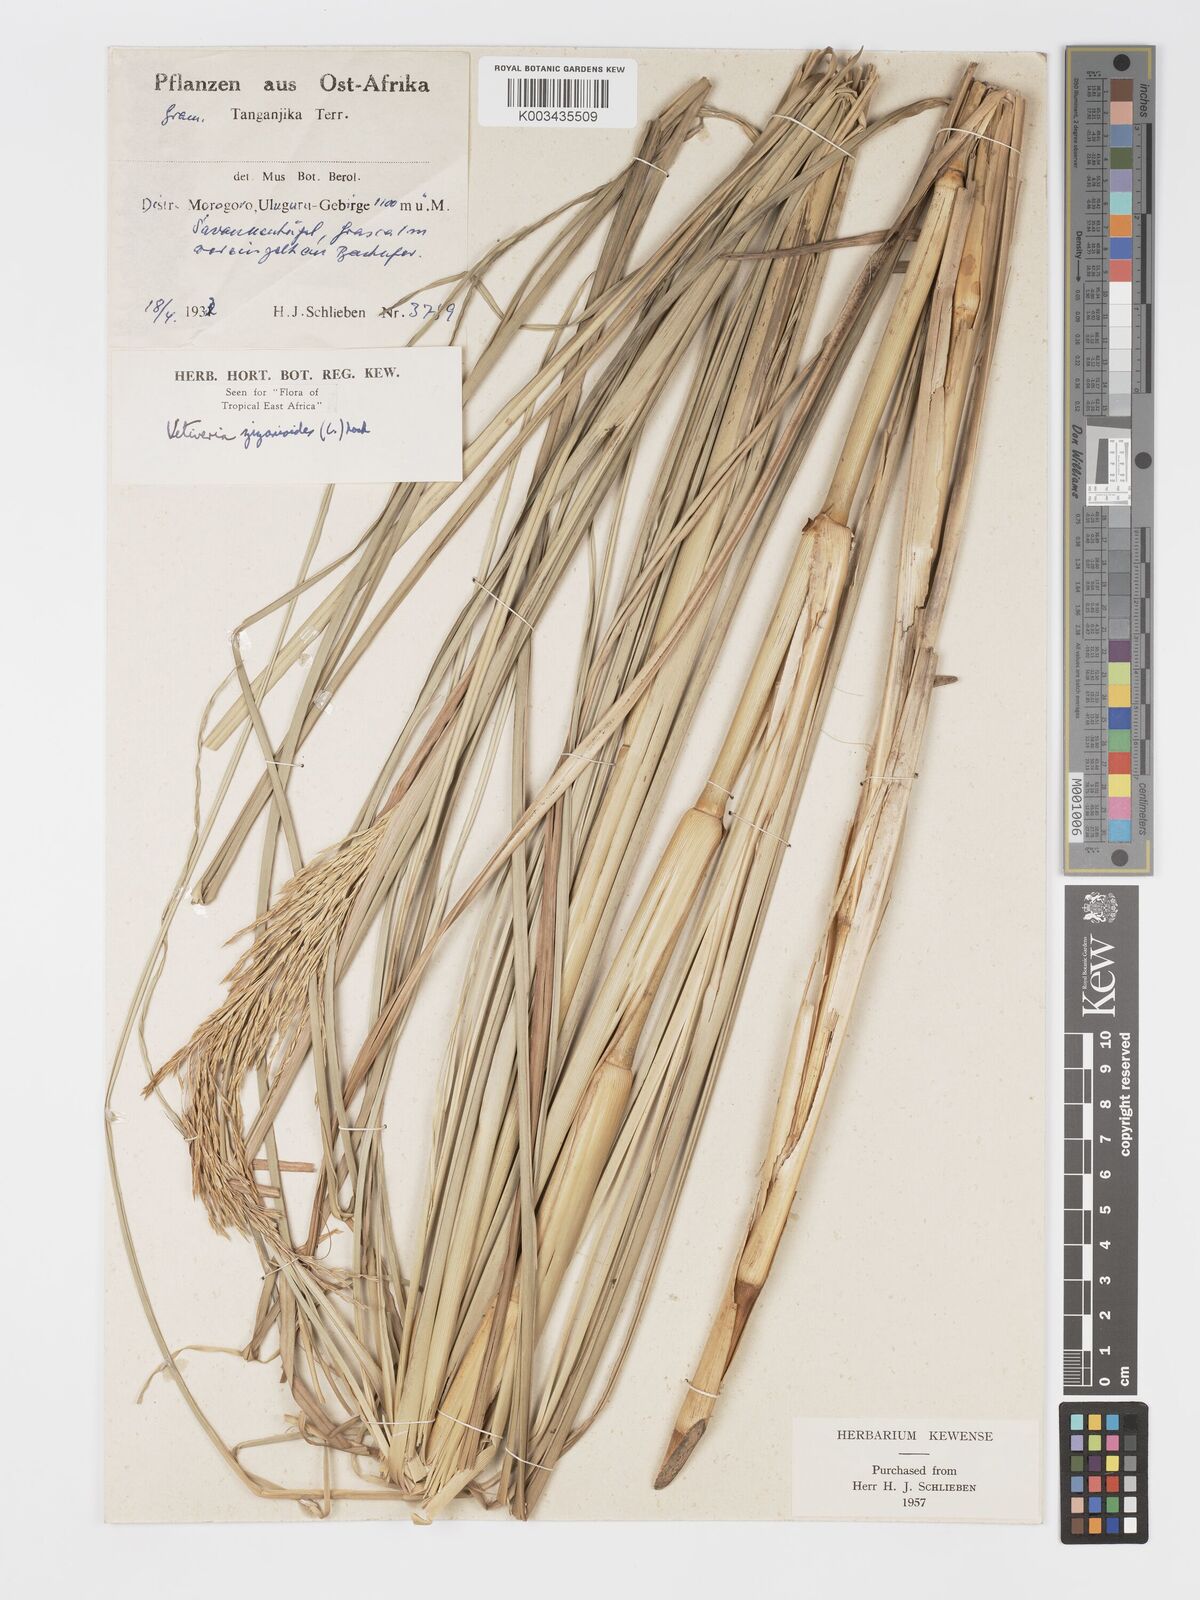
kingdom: Plantae
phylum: Tracheophyta
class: Liliopsida
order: Poales
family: Poaceae
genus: Chrysopogon
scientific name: Chrysopogon zizanioides
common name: False beardgrass
